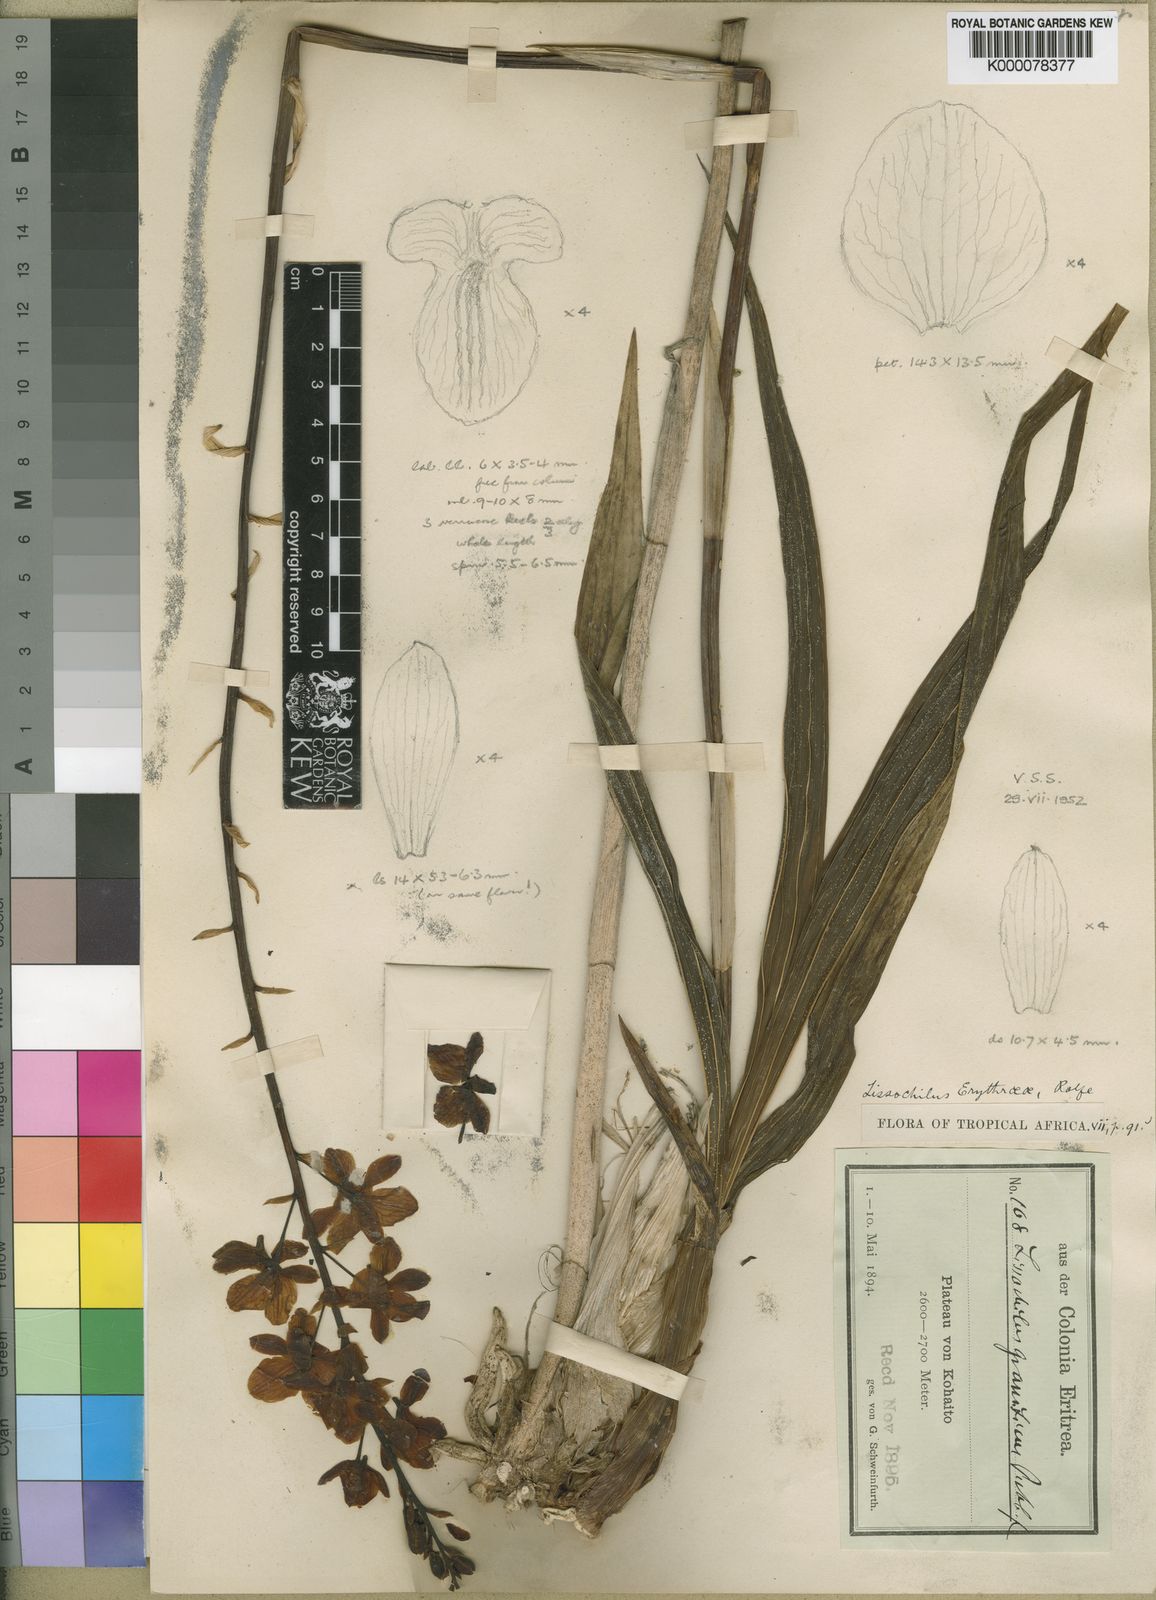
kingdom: Plantae
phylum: Tracheophyta
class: Liliopsida
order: Asparagales
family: Orchidaceae
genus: Eulophia
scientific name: Eulophia streptopetala
